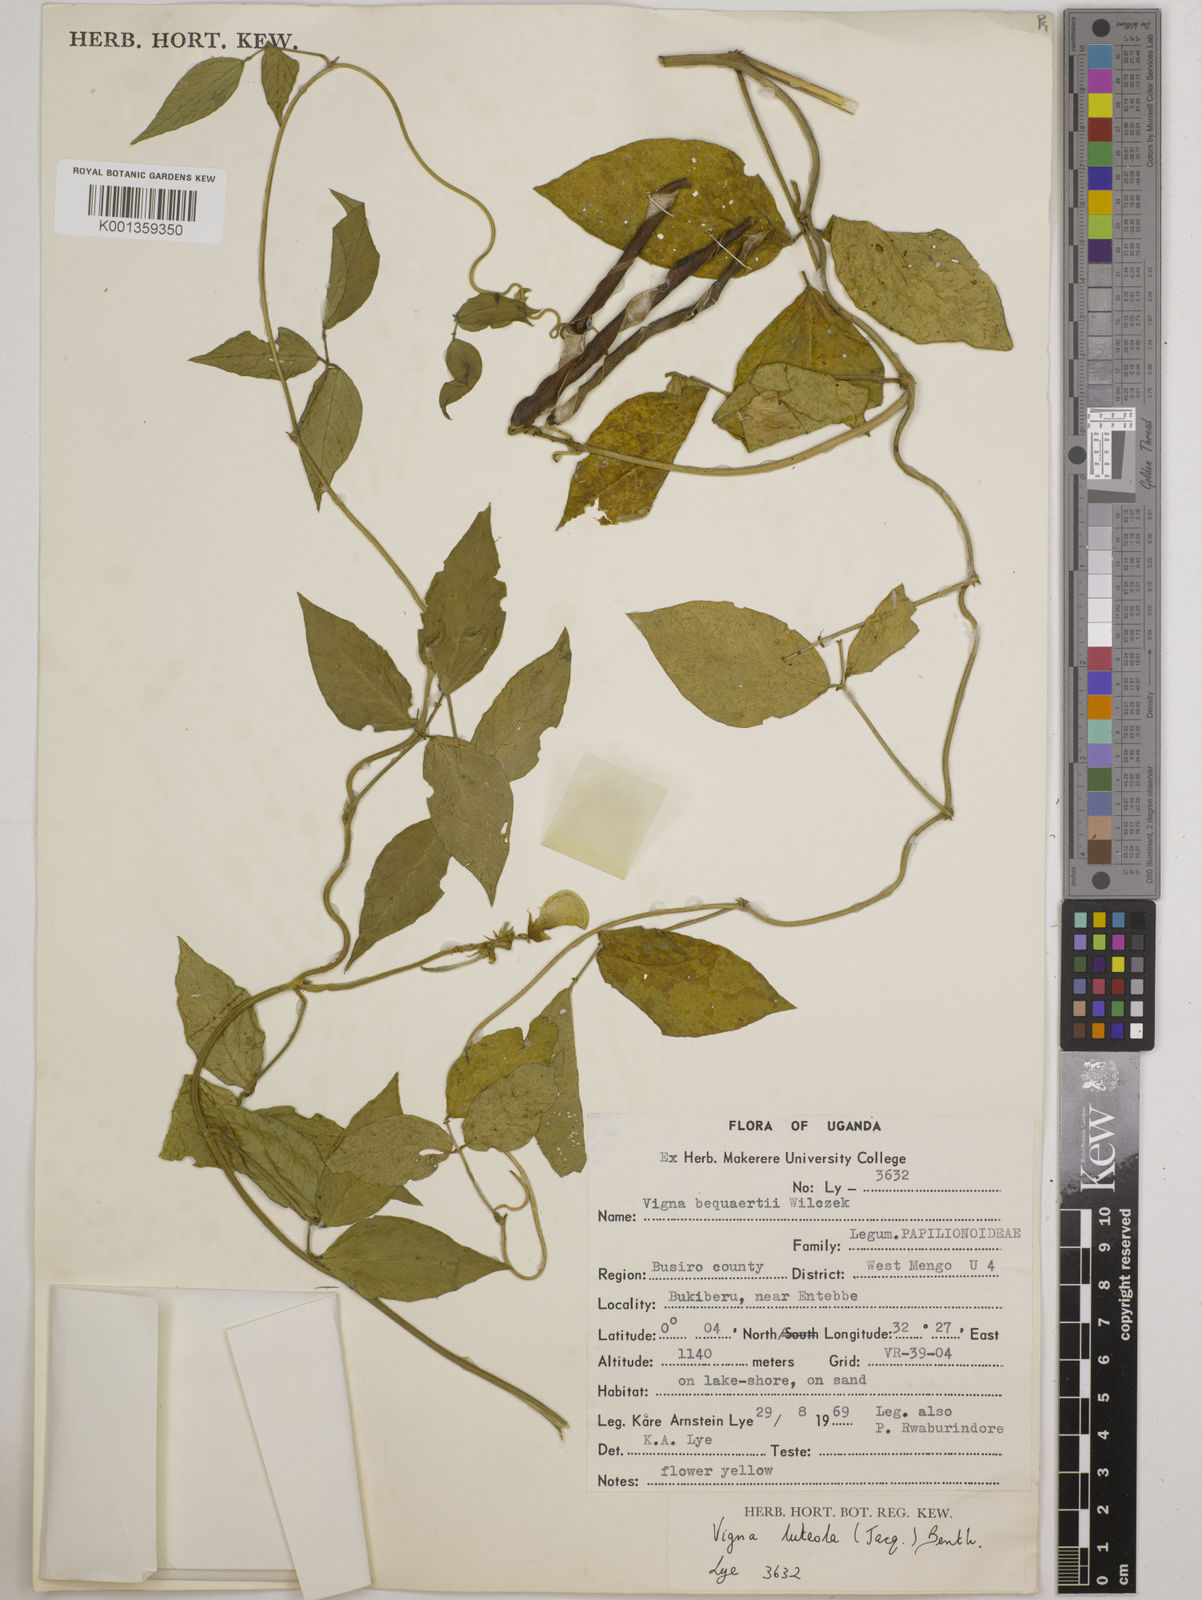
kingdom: Plantae
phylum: Tracheophyta
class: Magnoliopsida
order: Fabales
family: Fabaceae
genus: Vigna
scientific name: Vigna luteola
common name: Hairypod cowpea
